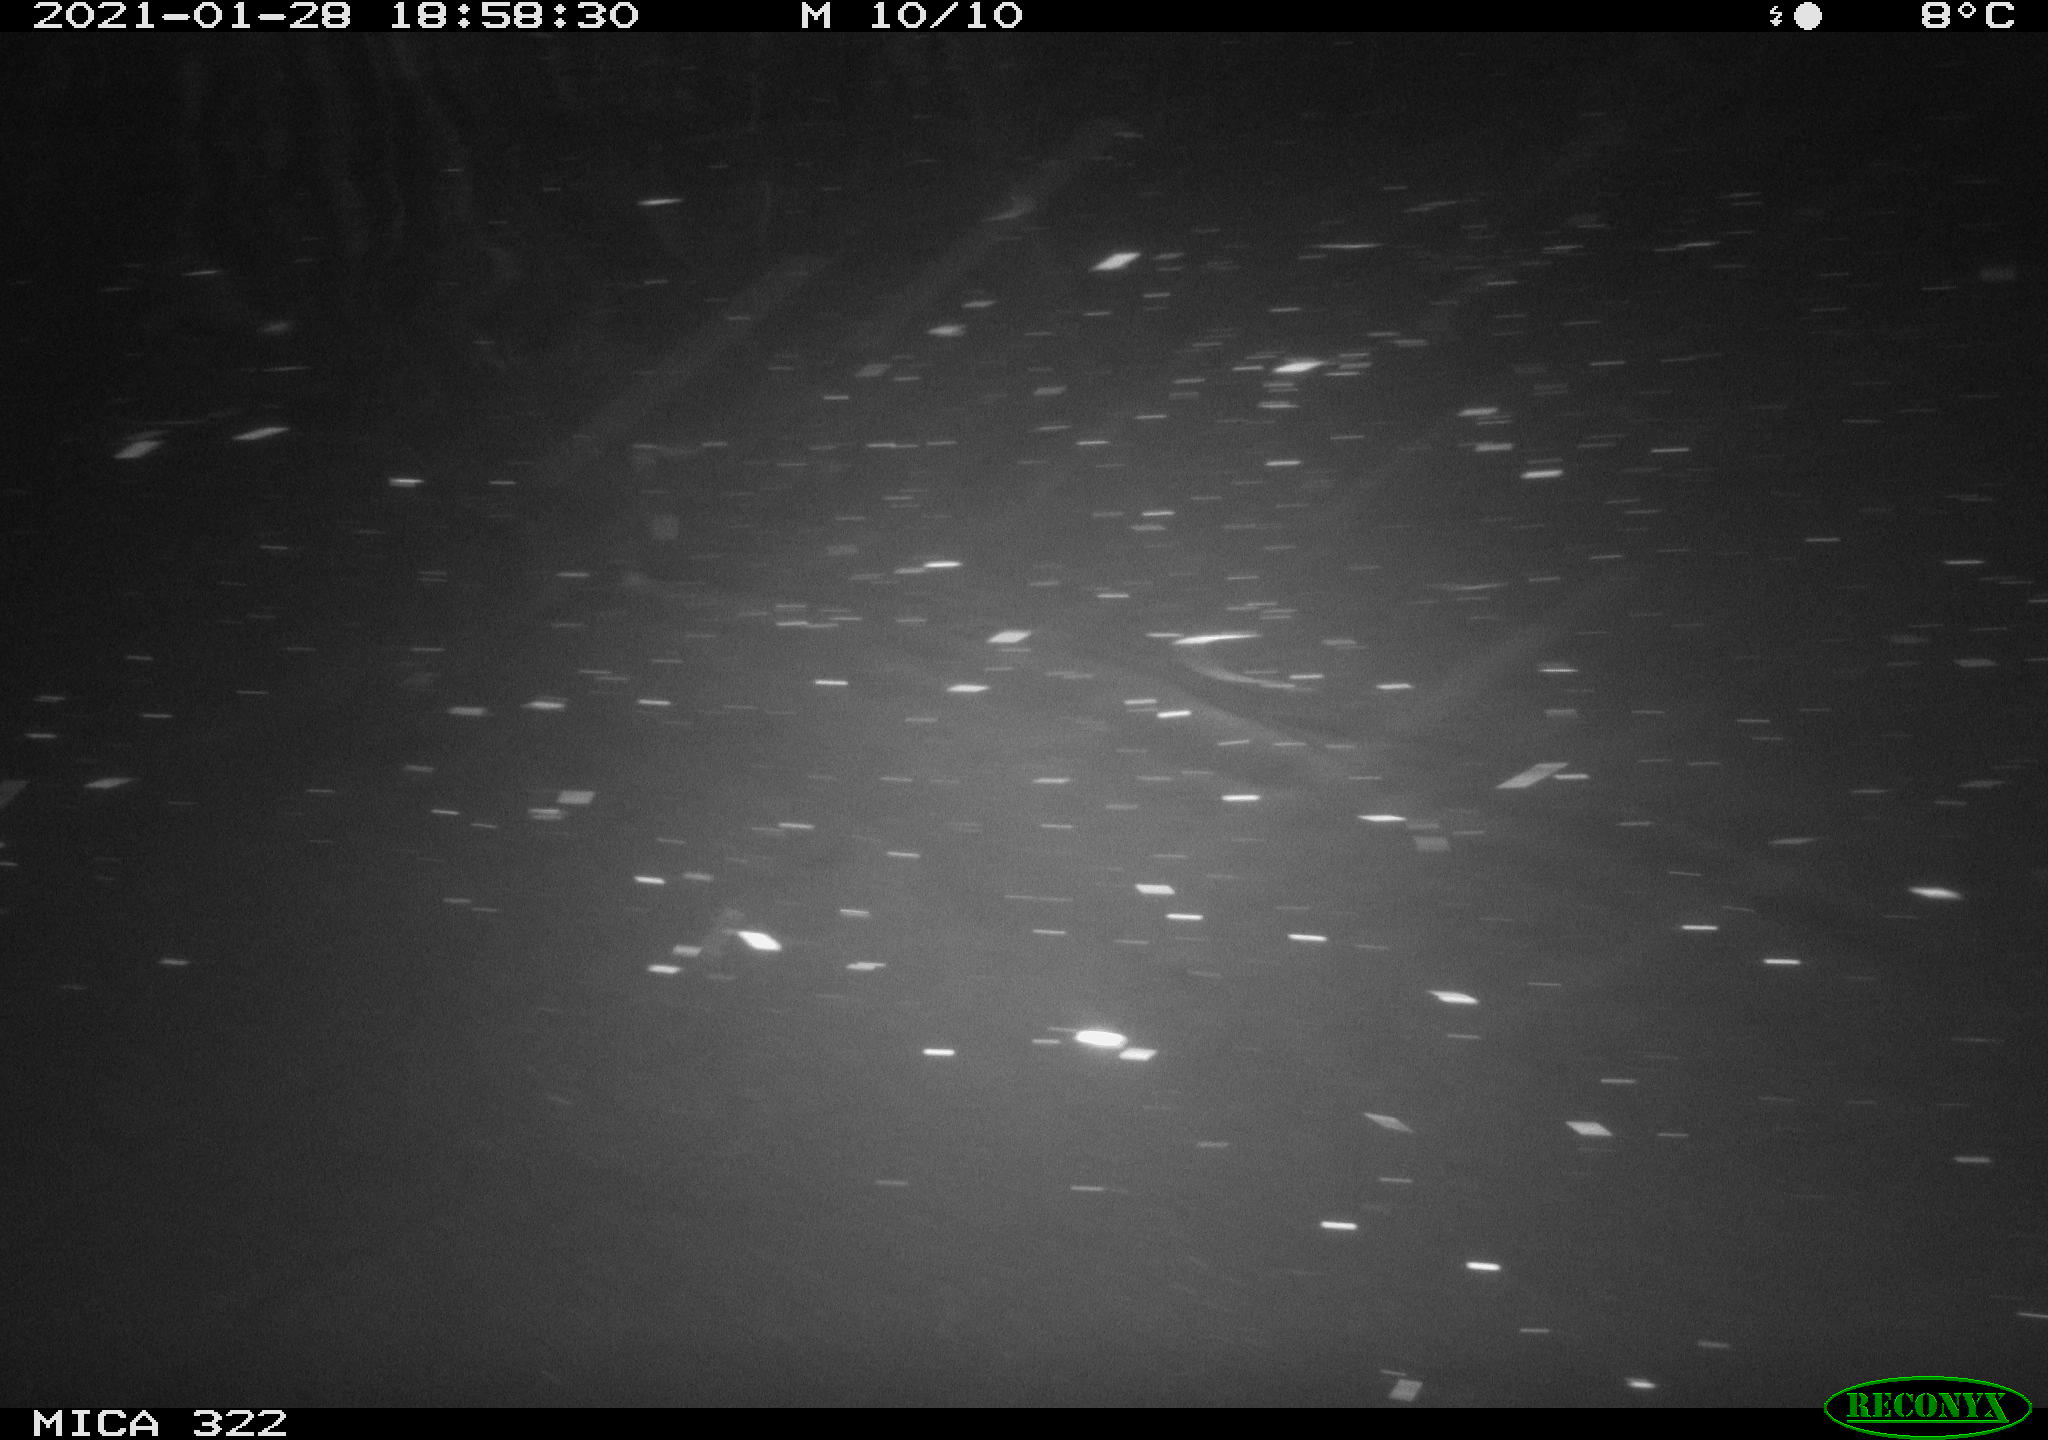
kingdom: Animalia
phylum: Chordata
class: Mammalia
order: Rodentia
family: Muridae
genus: Rattus
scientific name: Rattus norvegicus
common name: Brown rat
